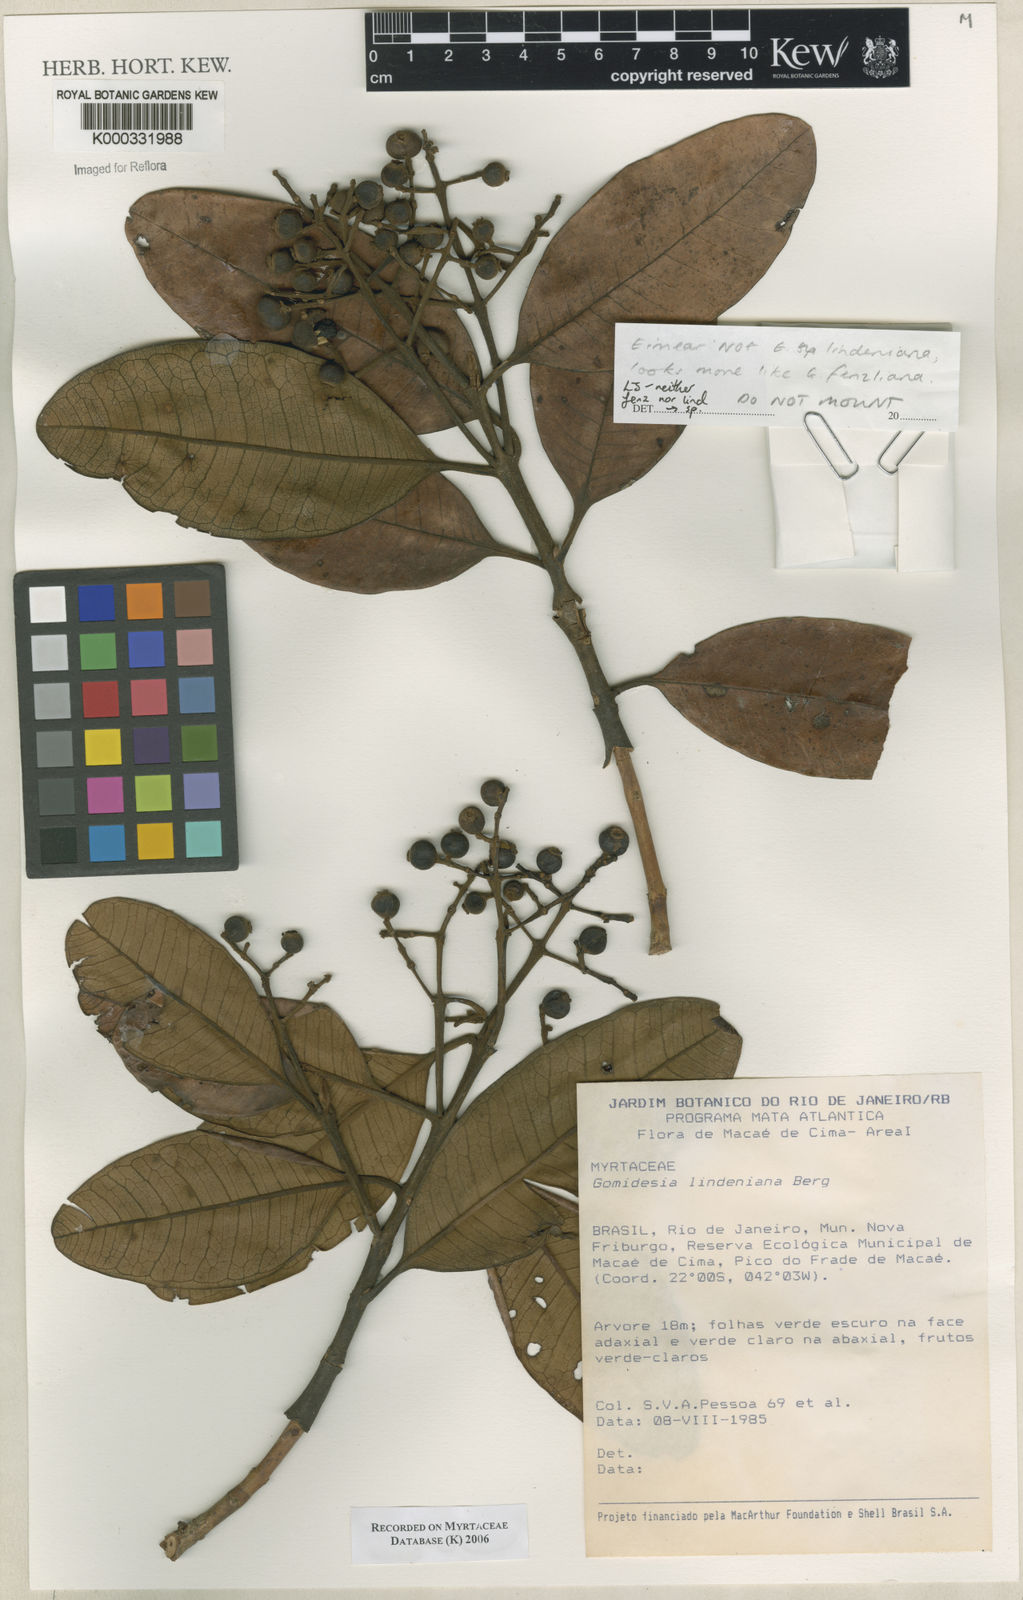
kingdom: Plantae
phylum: Tracheophyta
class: Magnoliopsida
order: Myrtales
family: Myrtaceae
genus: Myrcia
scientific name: Myrcia
